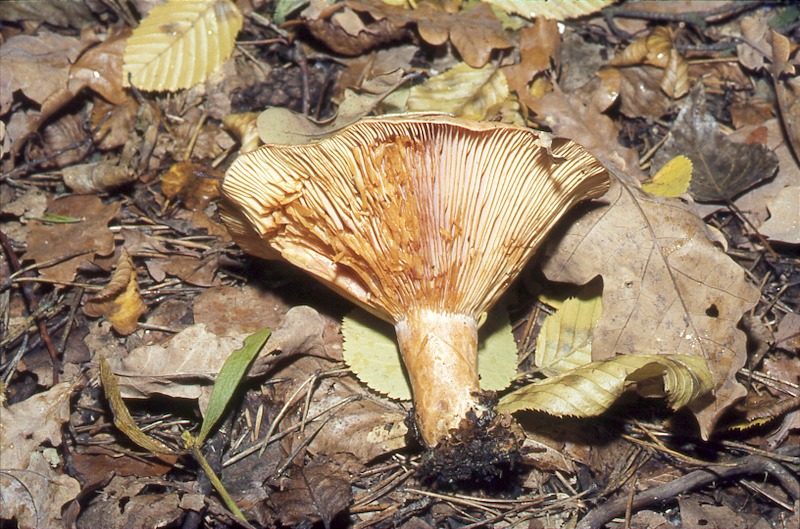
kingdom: Fungi
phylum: Basidiomycota
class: Agaricomycetes
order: Russulales
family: Russulaceae
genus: Lactarius
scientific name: Lactarius deliciosus
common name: Saffron milk-cap
